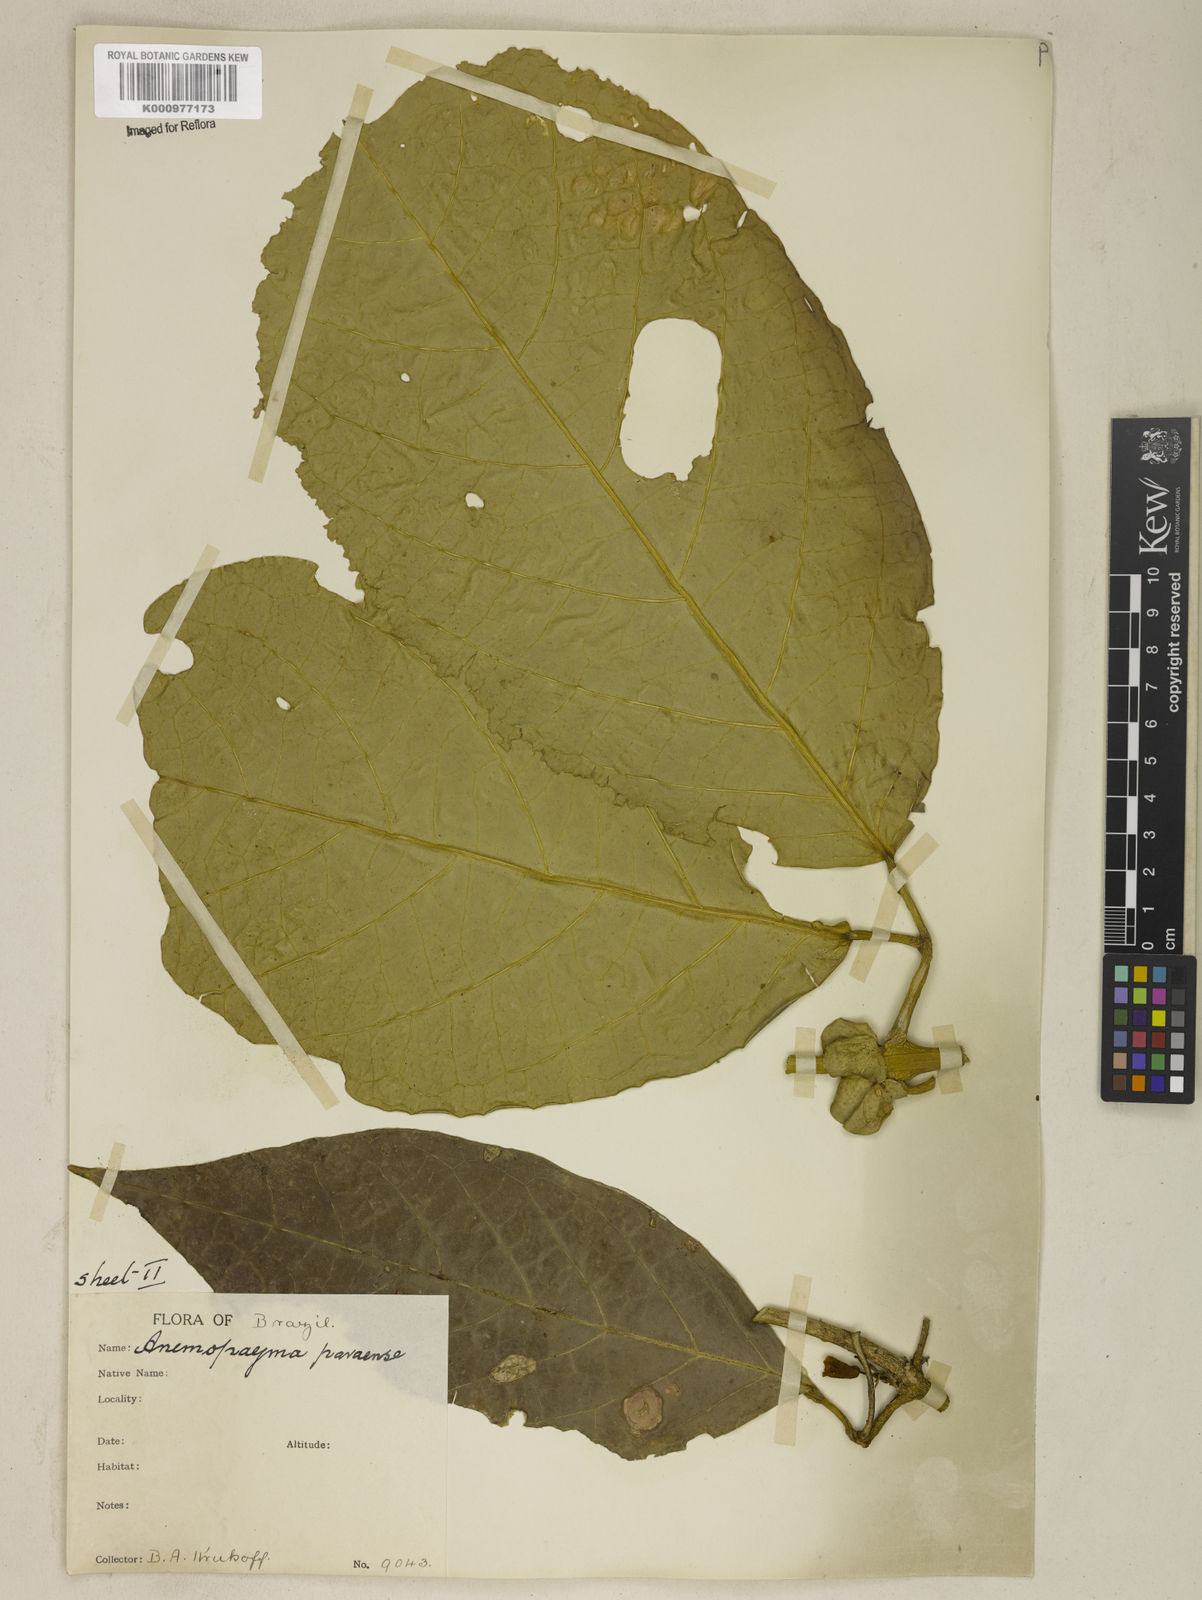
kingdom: Plantae
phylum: Tracheophyta
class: Magnoliopsida
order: Lamiales
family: Bignoniaceae
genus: Anemopaegma
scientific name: Anemopaegma
